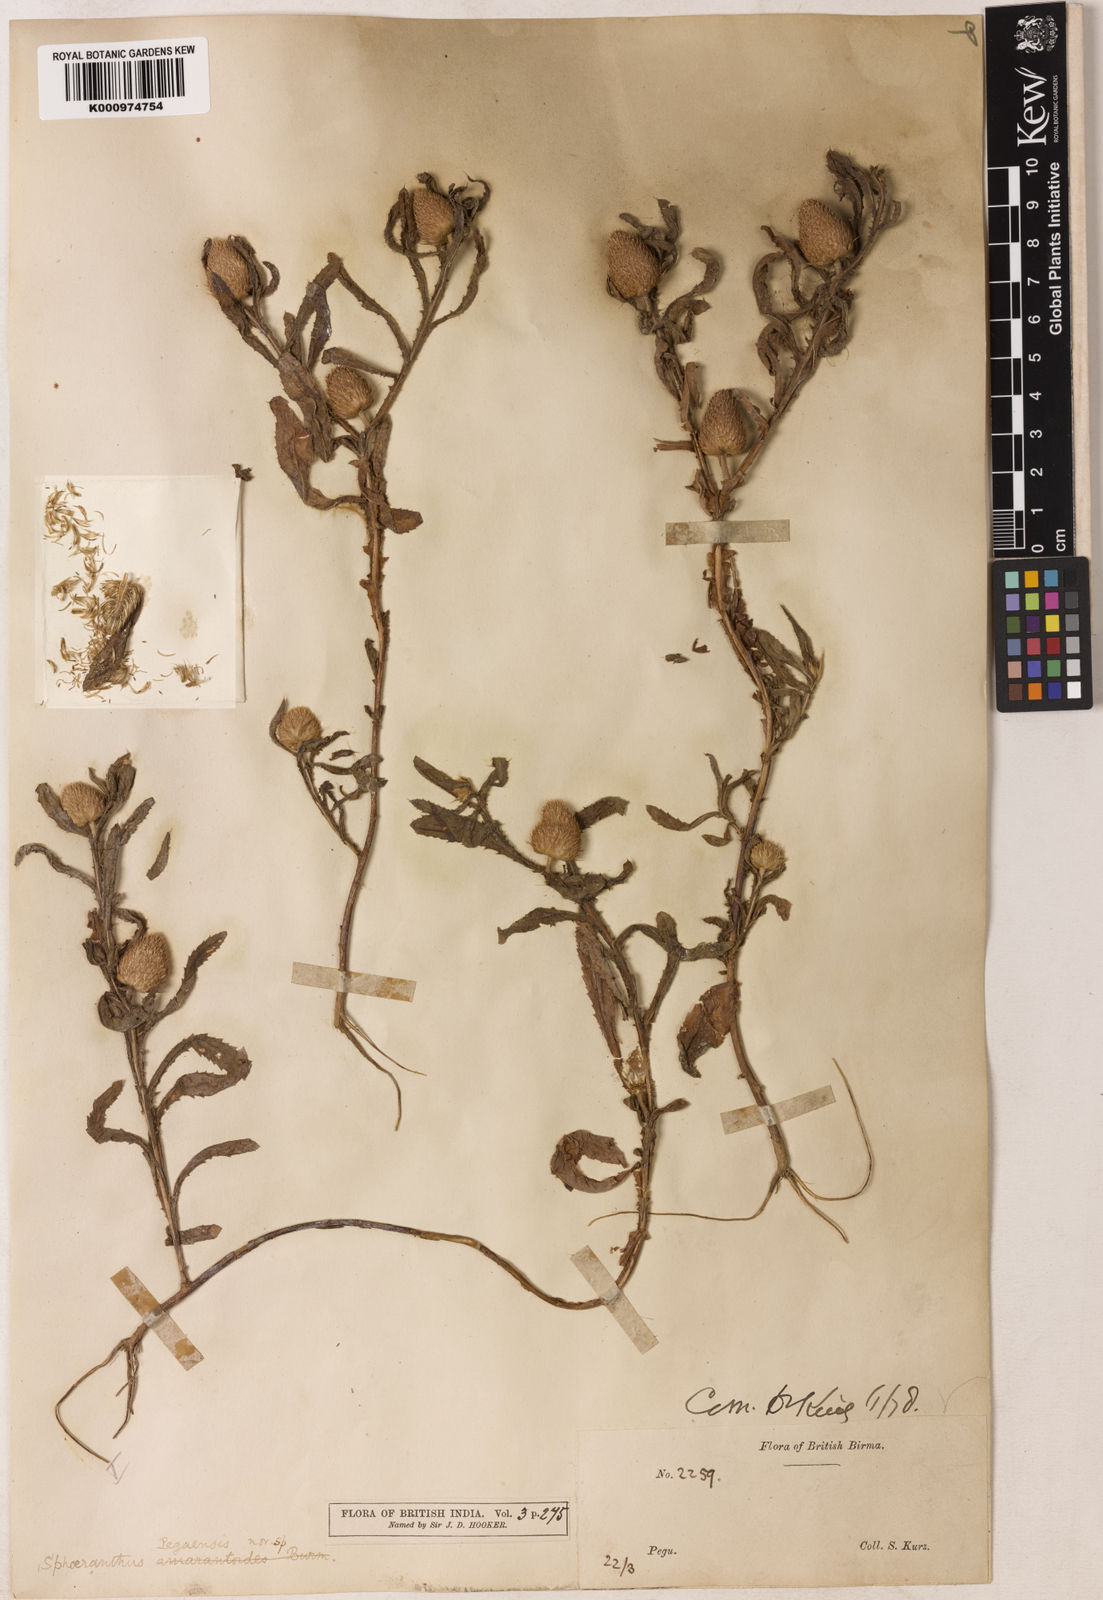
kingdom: Plantae
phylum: Tracheophyta
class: Magnoliopsida
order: Asterales
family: Asteraceae
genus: Sphaeranthus
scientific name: Sphaeranthus peguensis
